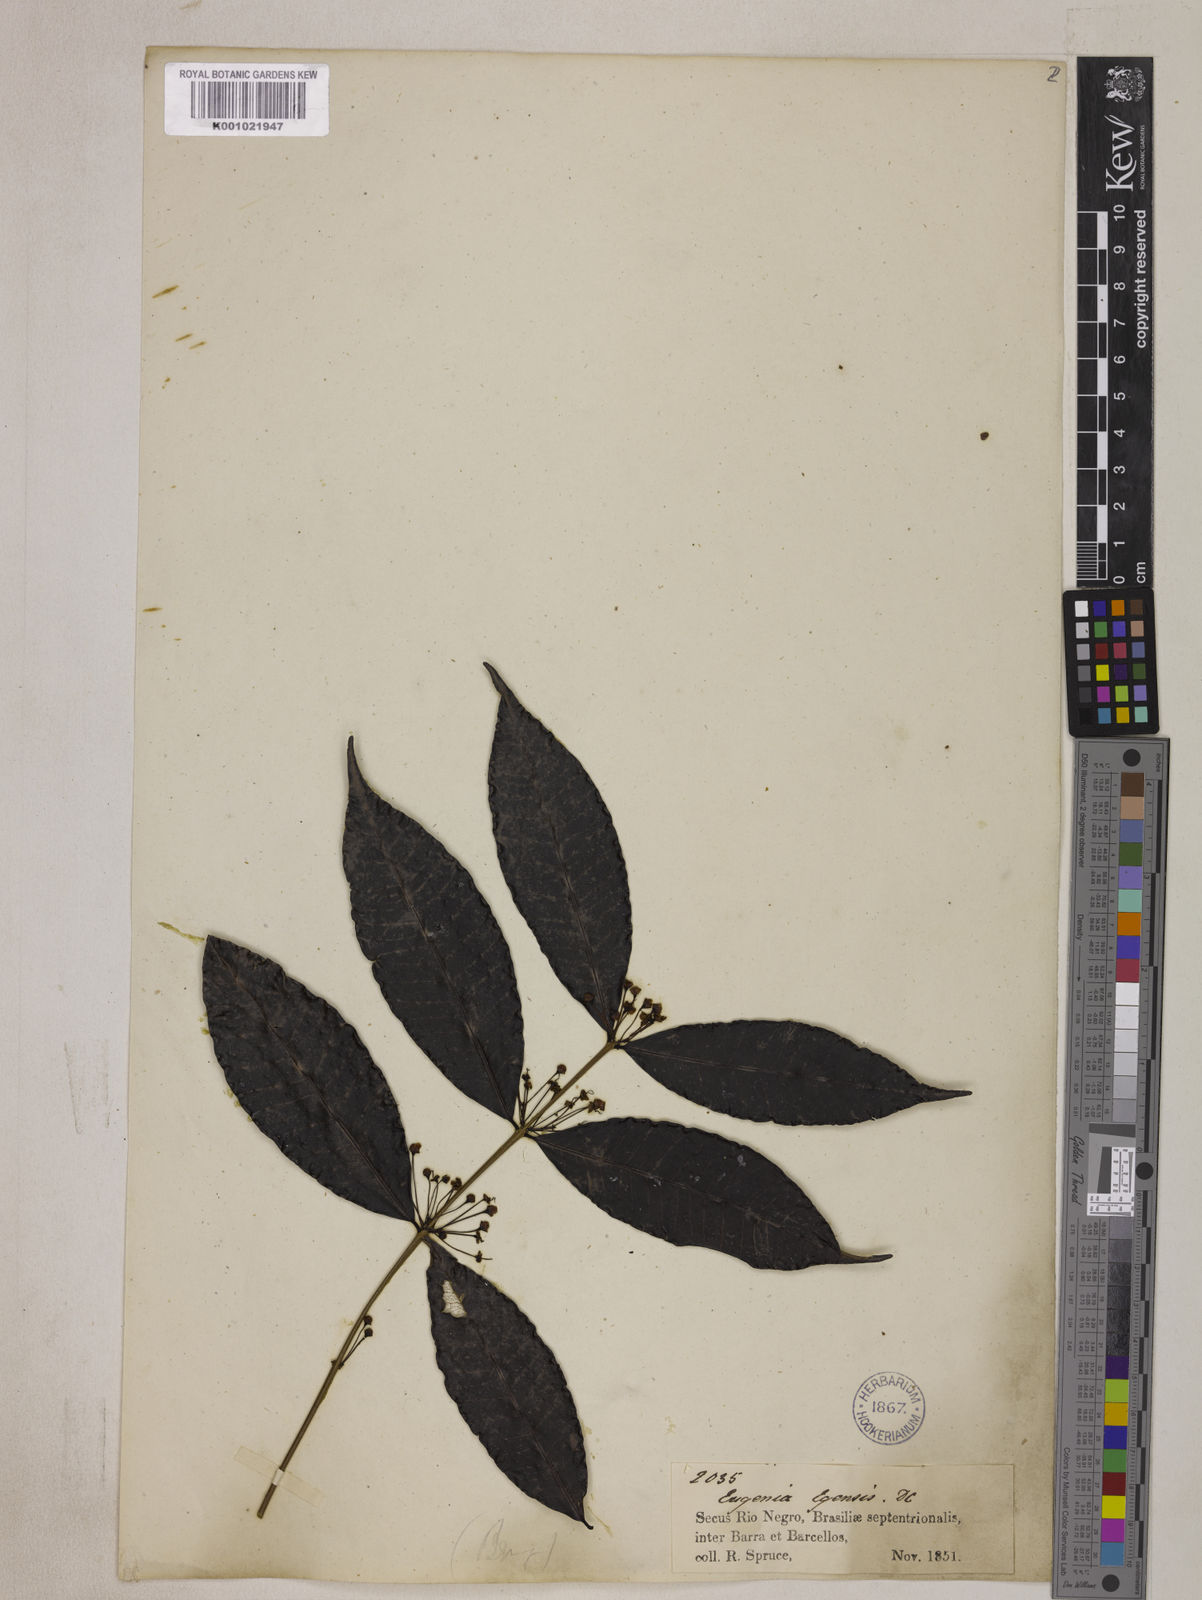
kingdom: Plantae
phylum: Tracheophyta
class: Magnoliopsida
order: Myrtales
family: Myrtaceae
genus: Eugenia
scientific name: Eugenia egensis
